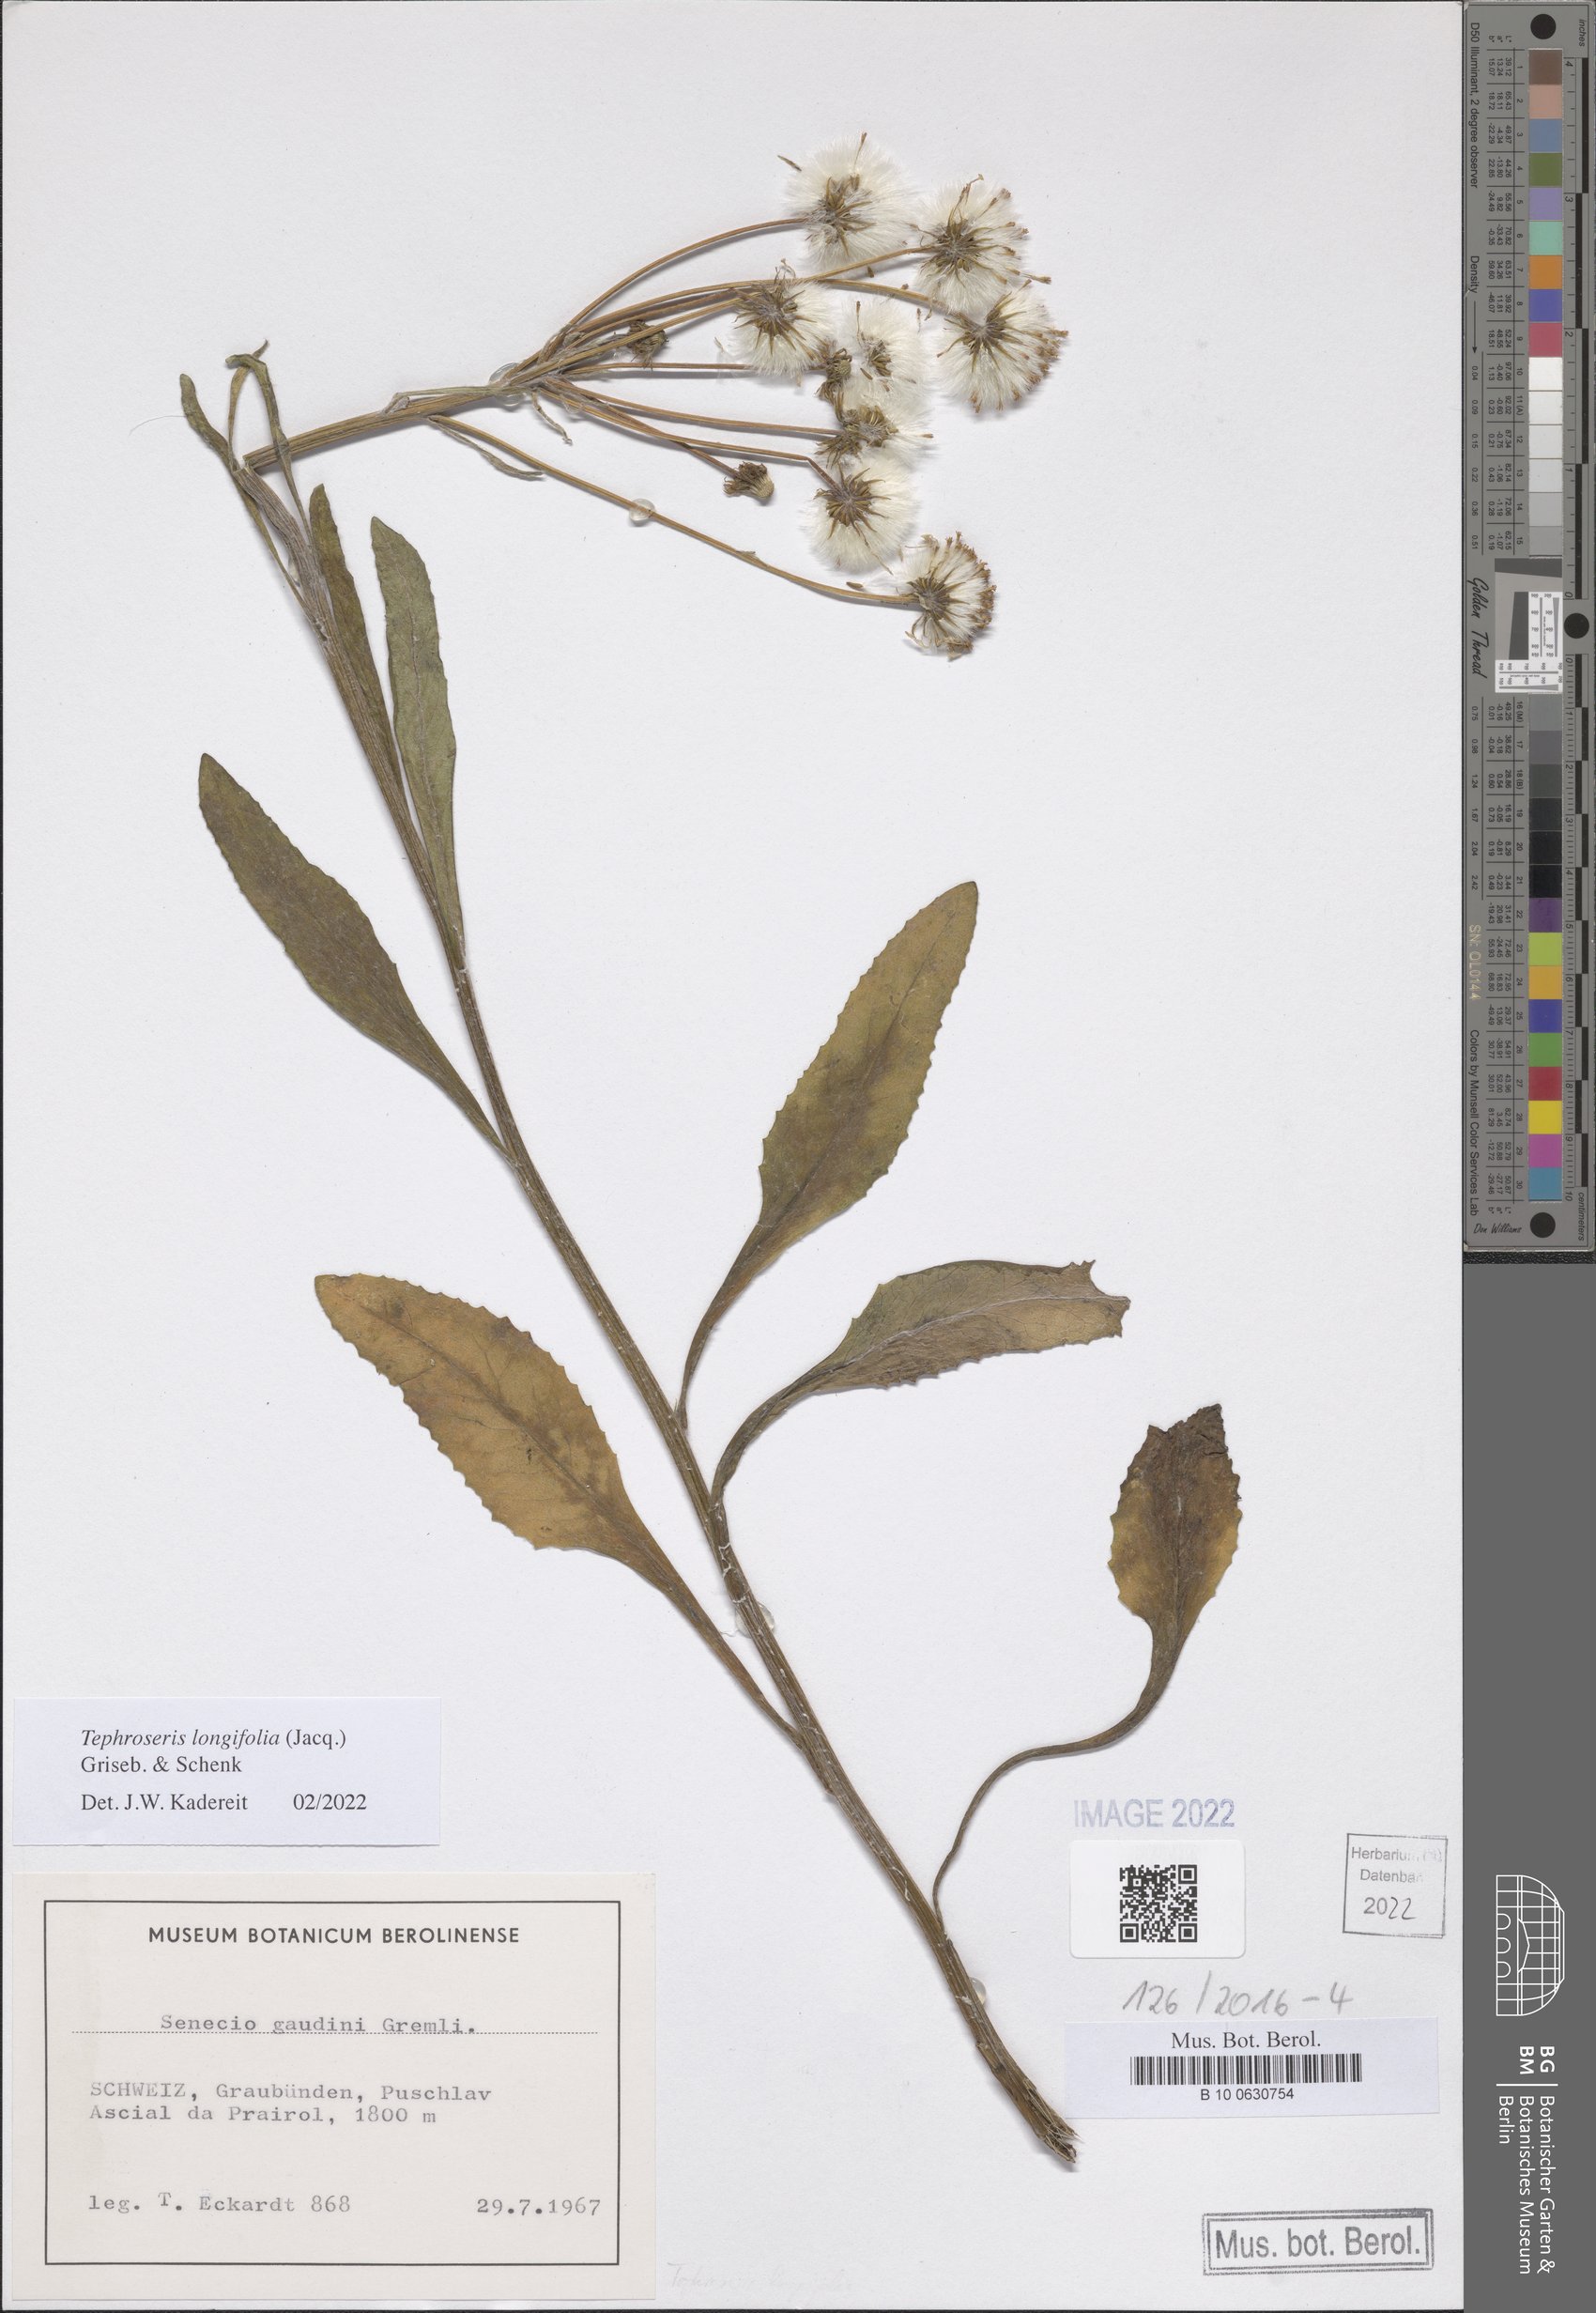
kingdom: Plantae
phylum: Tracheophyta
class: Magnoliopsida
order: Asterales
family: Asteraceae
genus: Tephroseris
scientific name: Tephroseris longifolia
